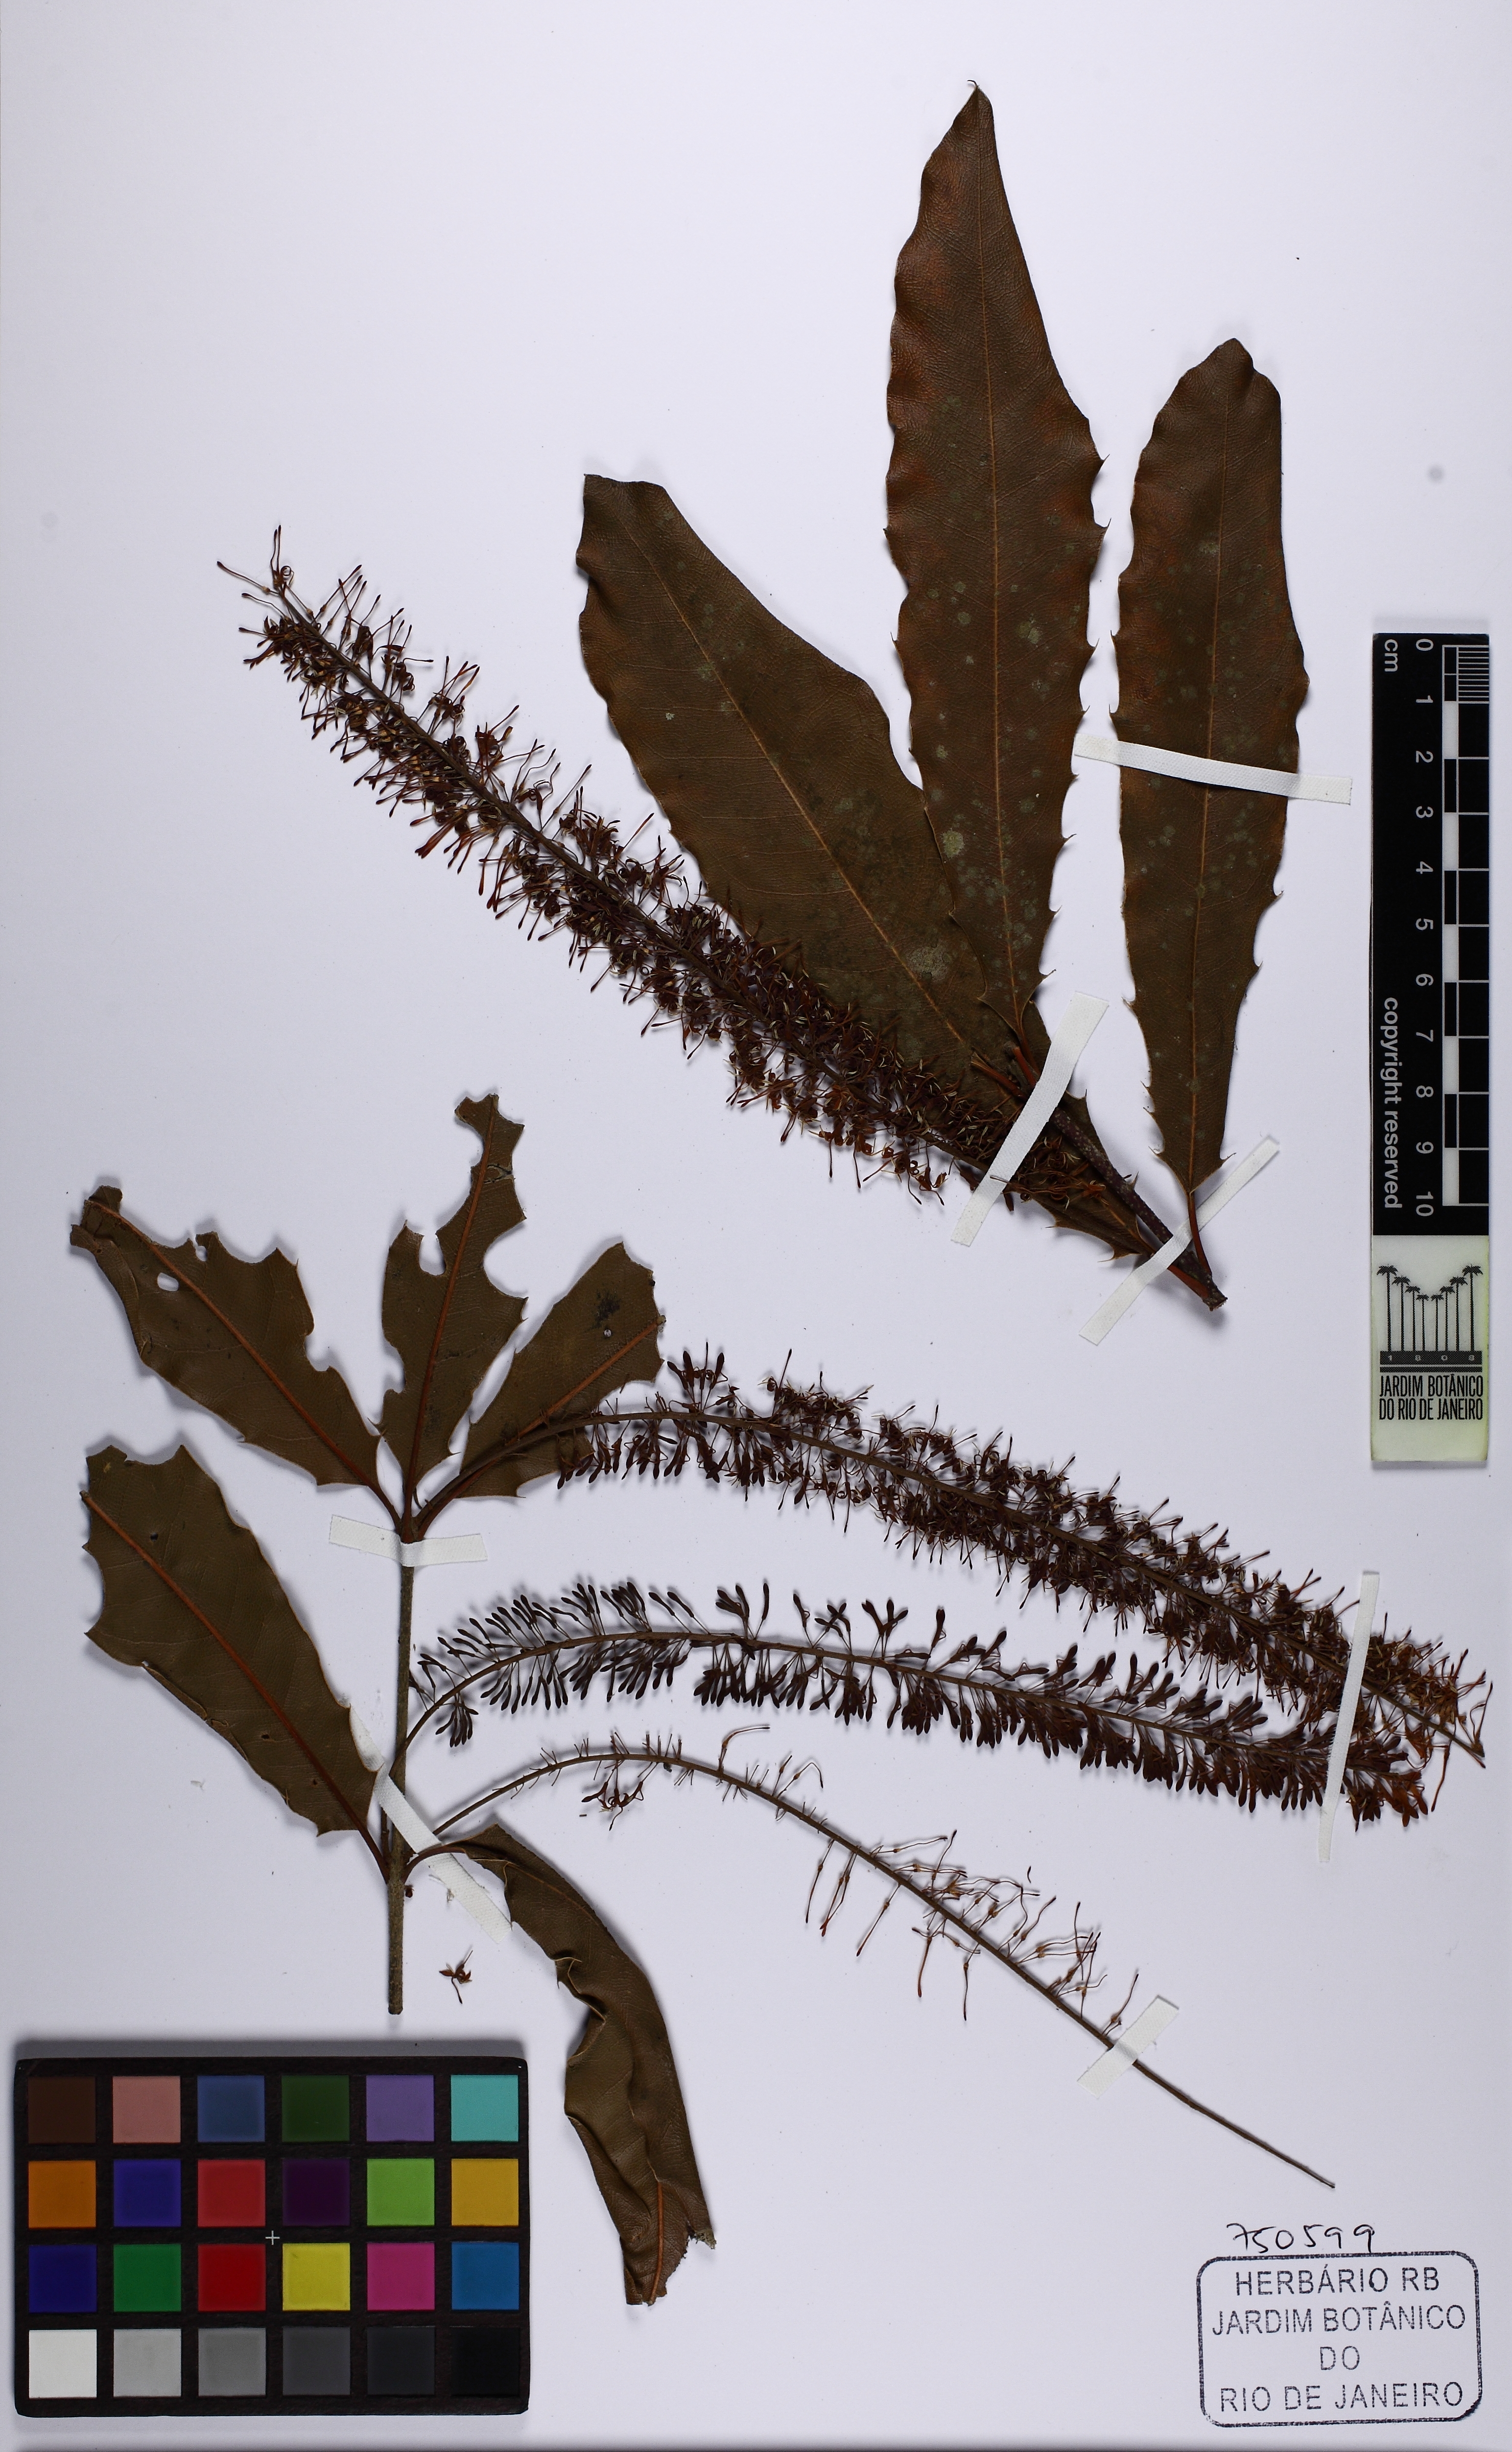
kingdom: Plantae
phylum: Tracheophyta
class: Magnoliopsida
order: Proteales
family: Proteaceae
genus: Macadamia
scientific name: Macadamia ternifolia
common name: Australian-nut
